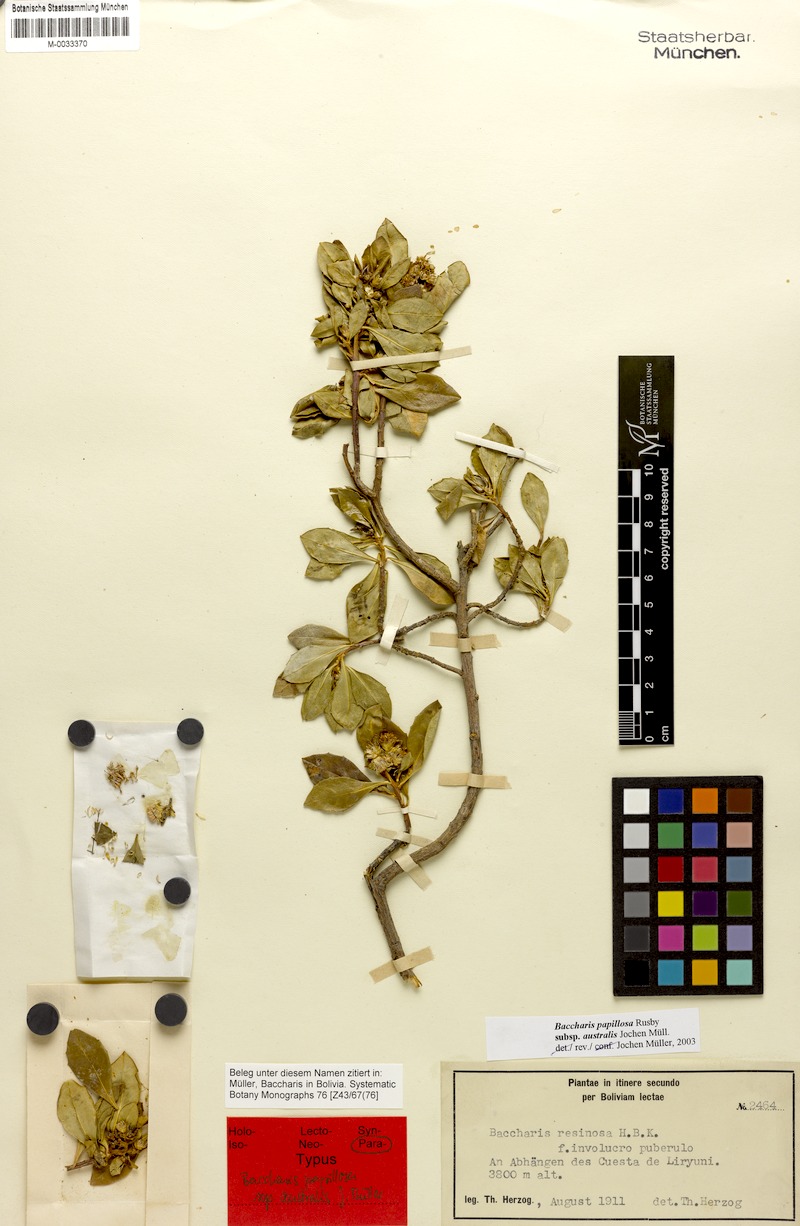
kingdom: Plantae
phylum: Tracheophyta
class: Magnoliopsida
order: Asterales
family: Asteraceae
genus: Baccharis
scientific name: Baccharis neoaustralis
